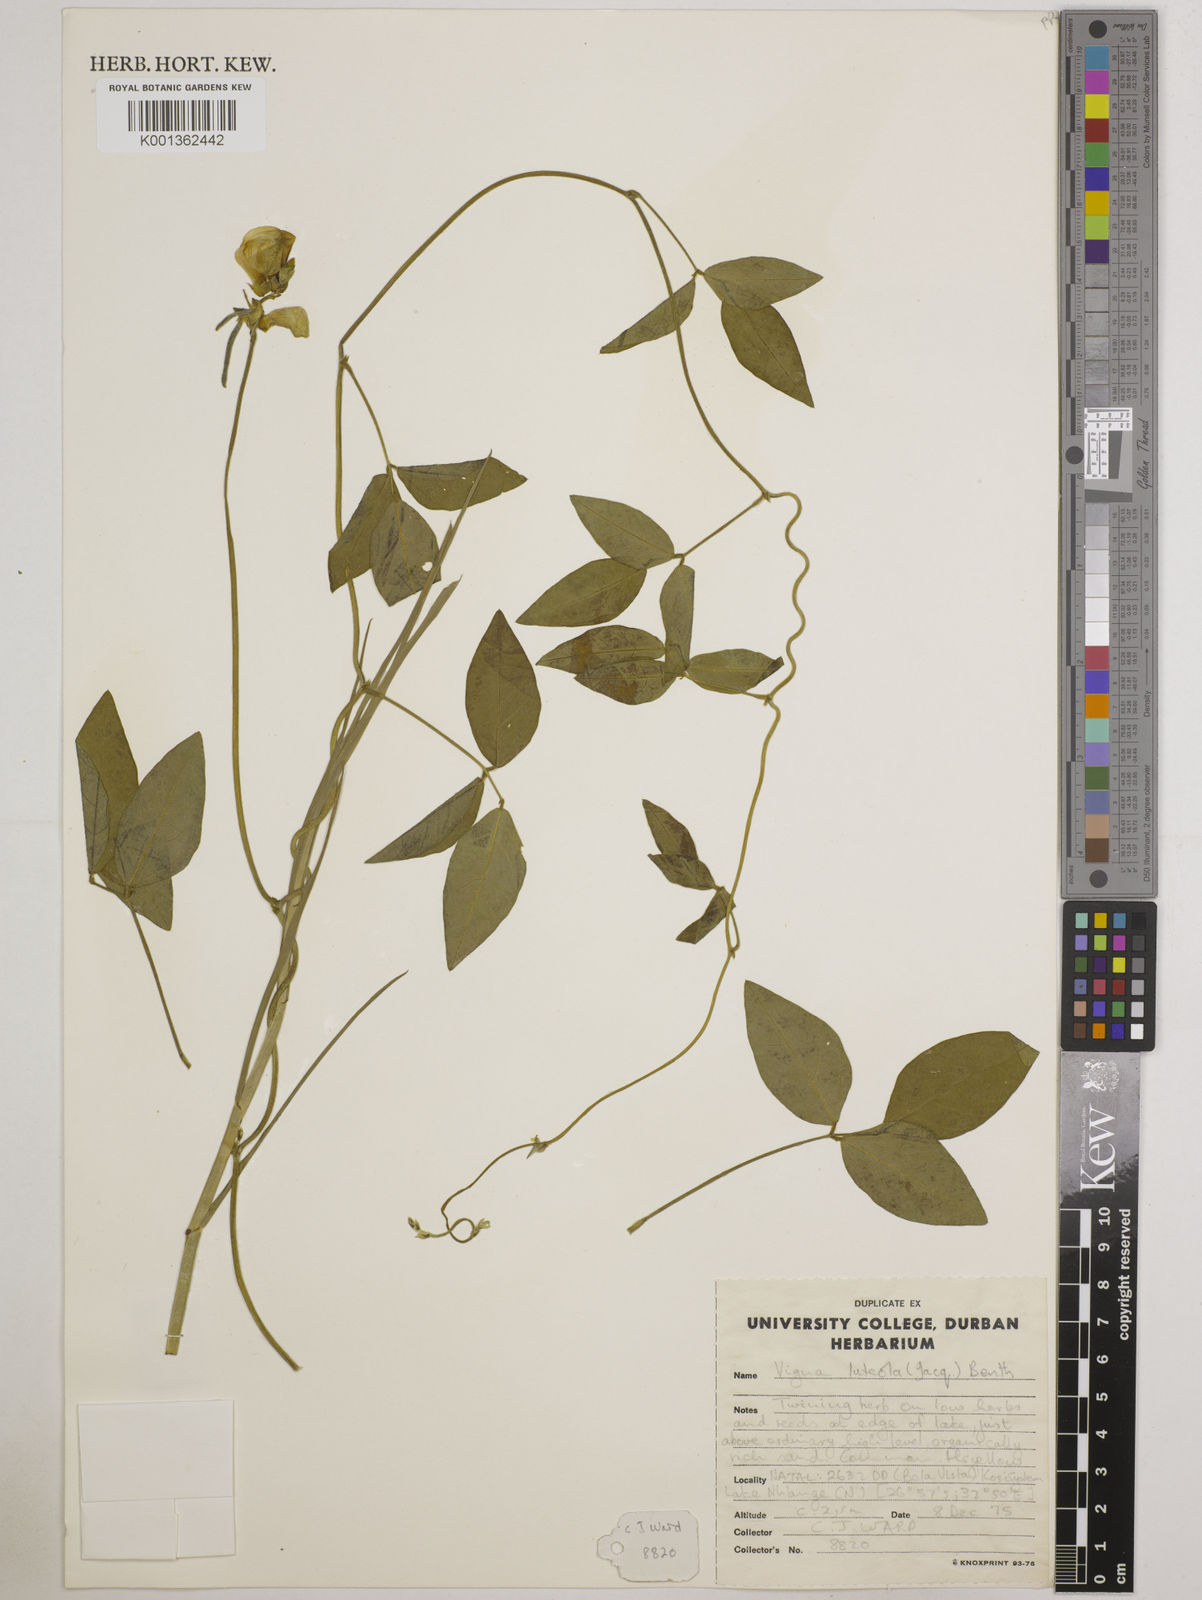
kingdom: Plantae
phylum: Tracheophyta
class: Magnoliopsida
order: Fabales
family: Fabaceae
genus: Vigna
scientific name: Vigna luteola
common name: Hairypod cowpea
